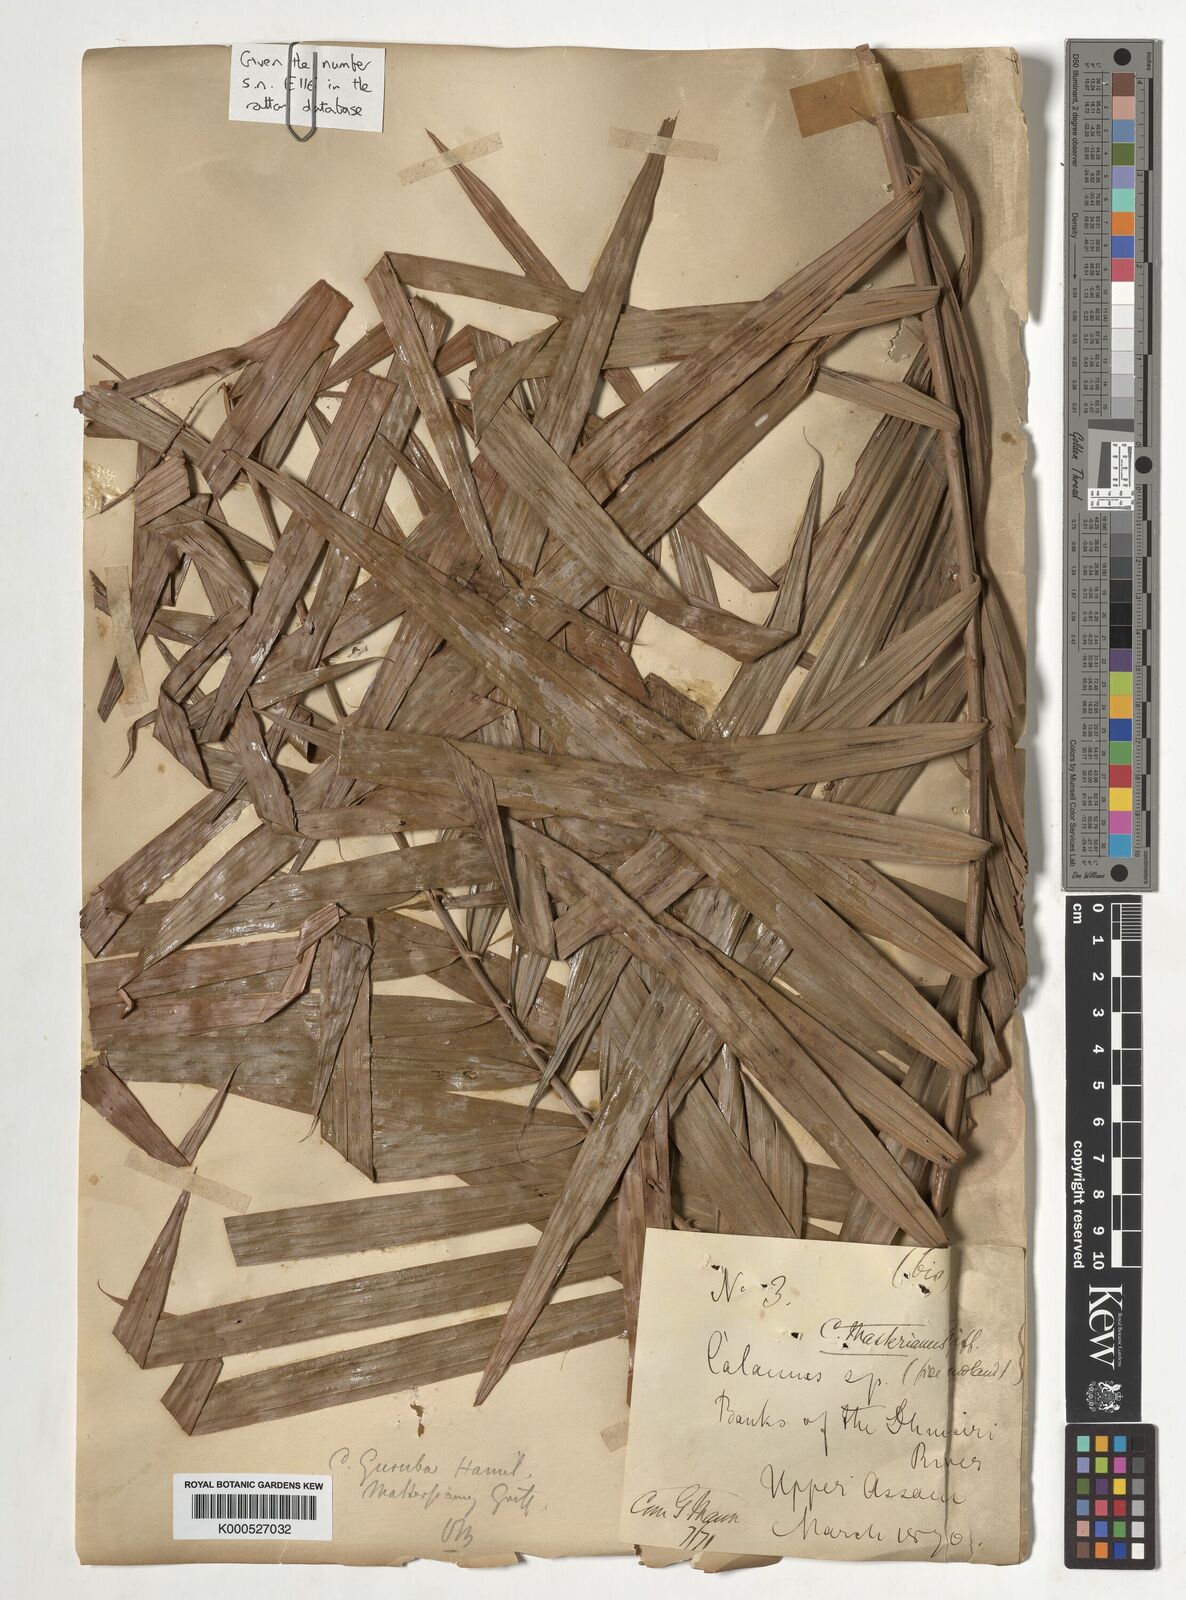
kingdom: Plantae
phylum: Tracheophyta
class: Liliopsida
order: Arecales
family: Arecaceae
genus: Calamus
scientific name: Calamus guruba
